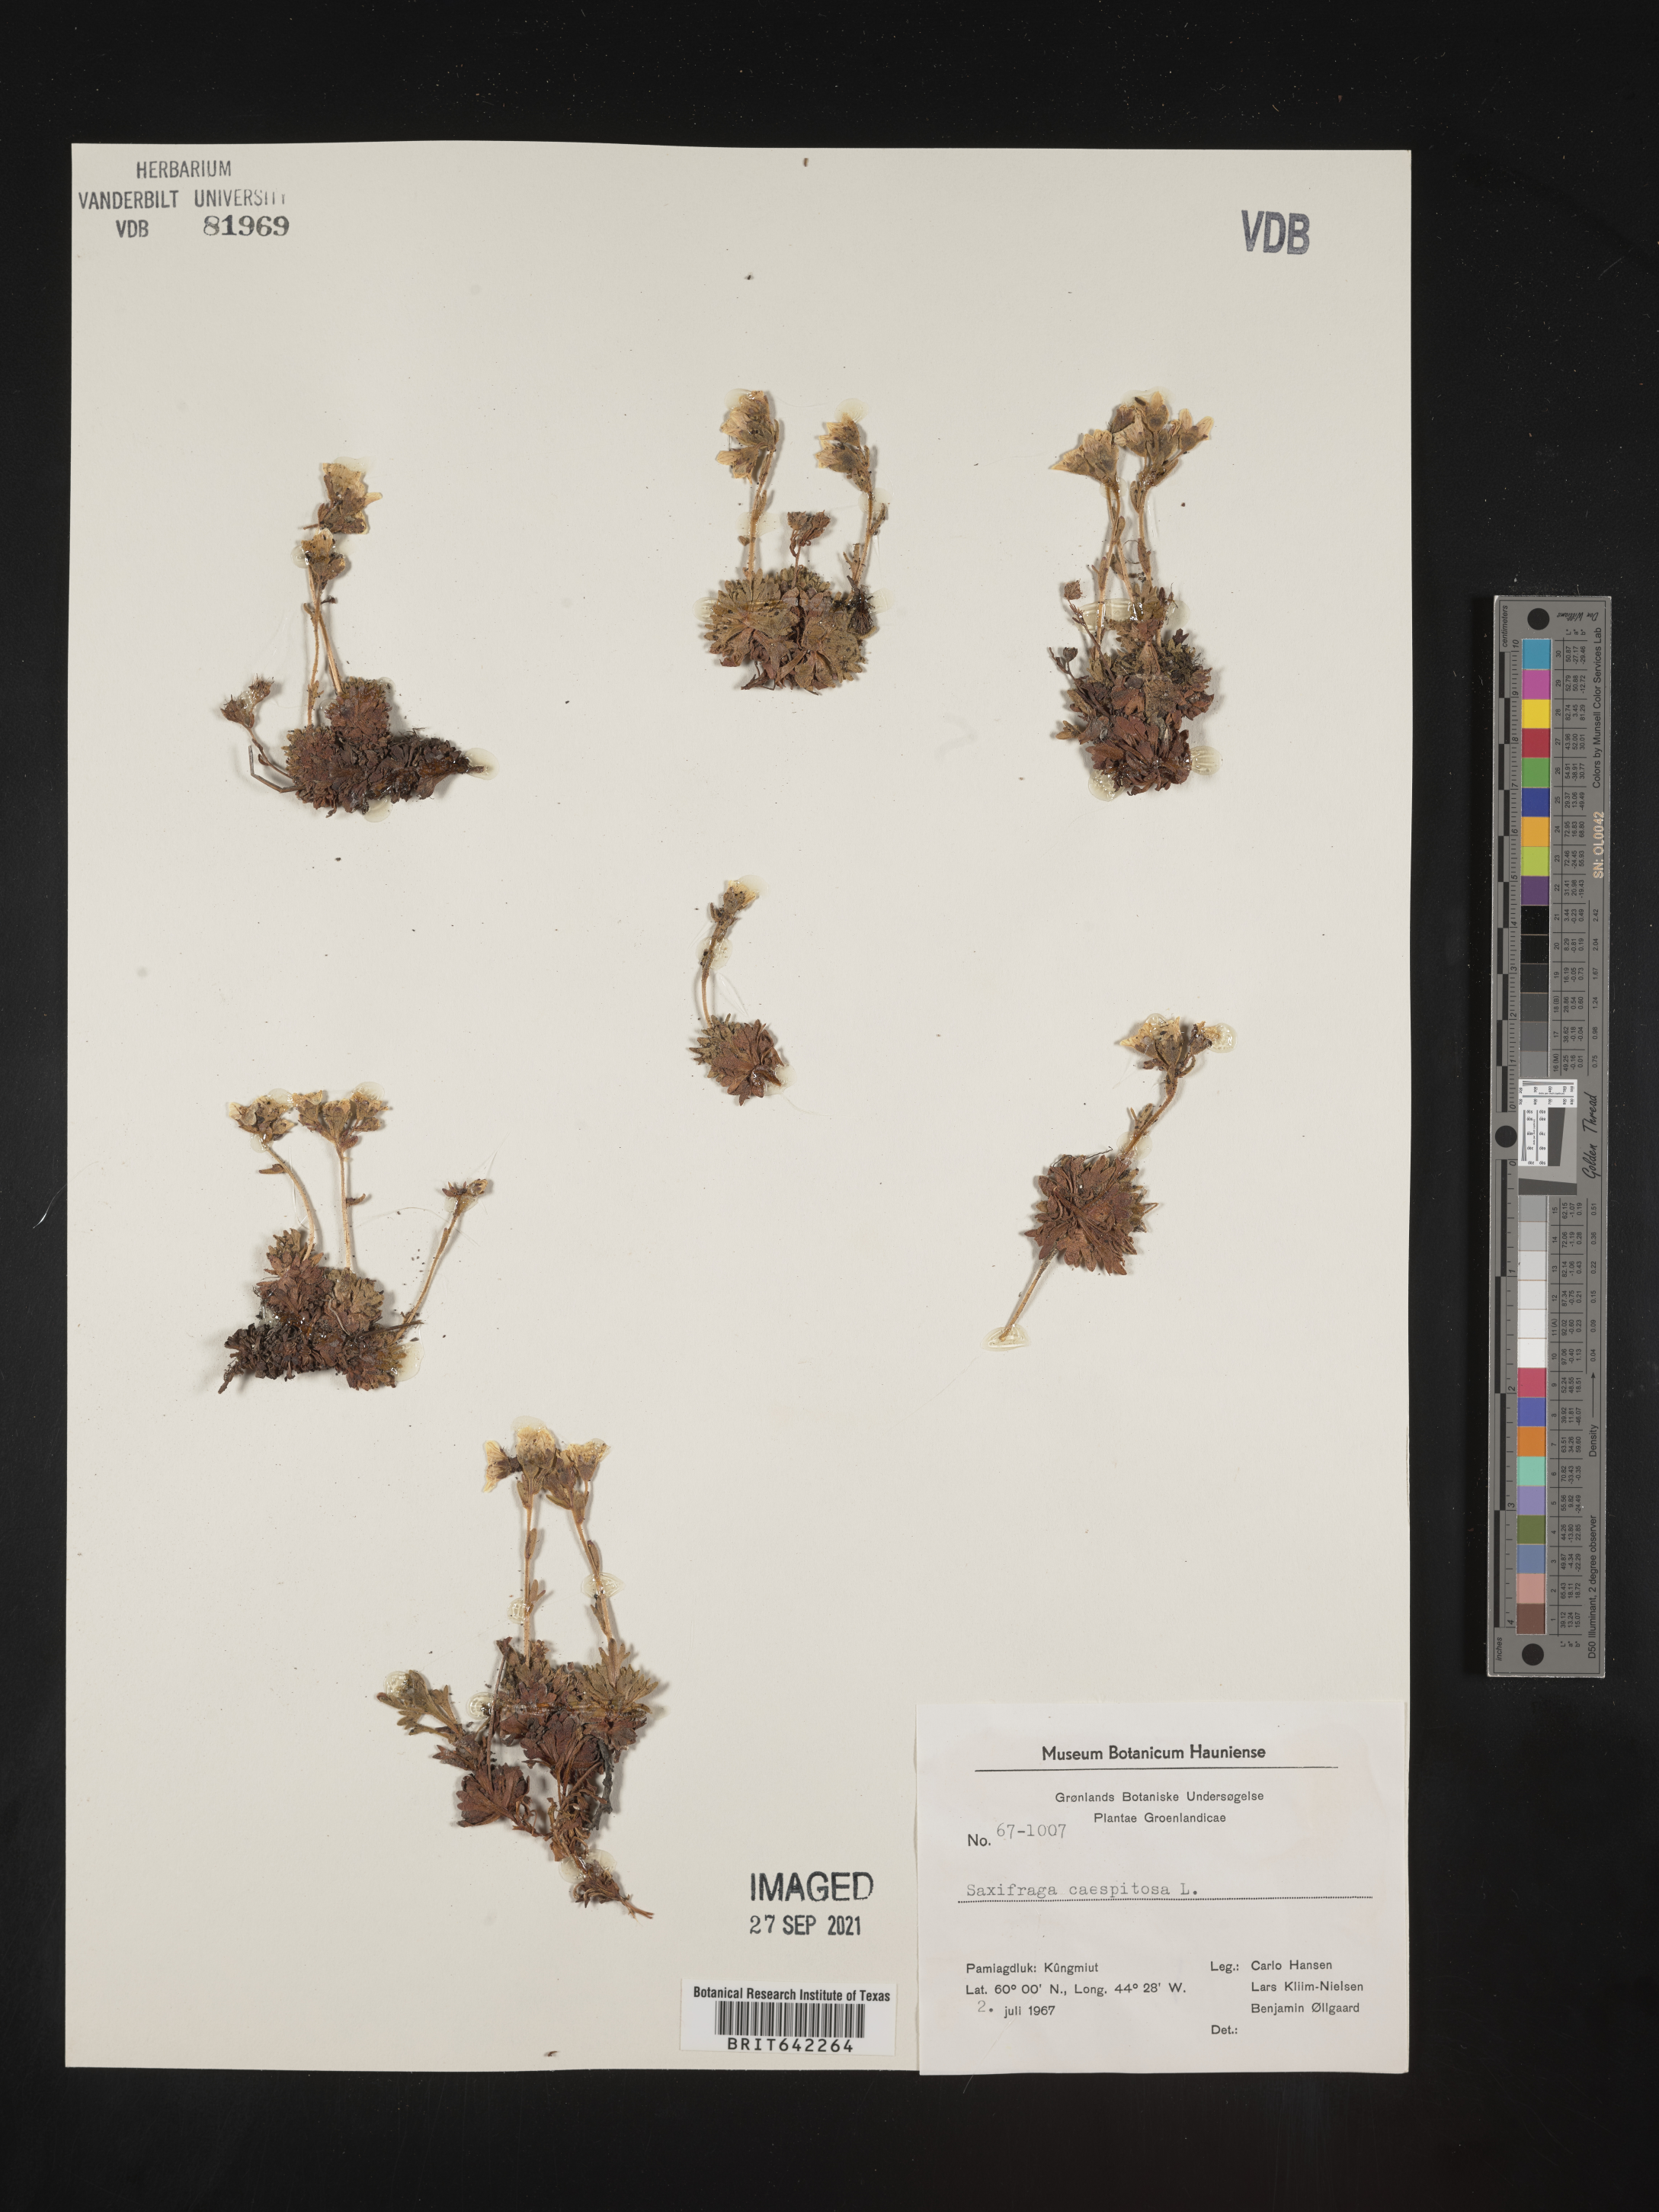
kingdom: Plantae
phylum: Tracheophyta
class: Magnoliopsida
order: Saxifragales
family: Saxifragaceae
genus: Saxifraga
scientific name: Saxifraga
